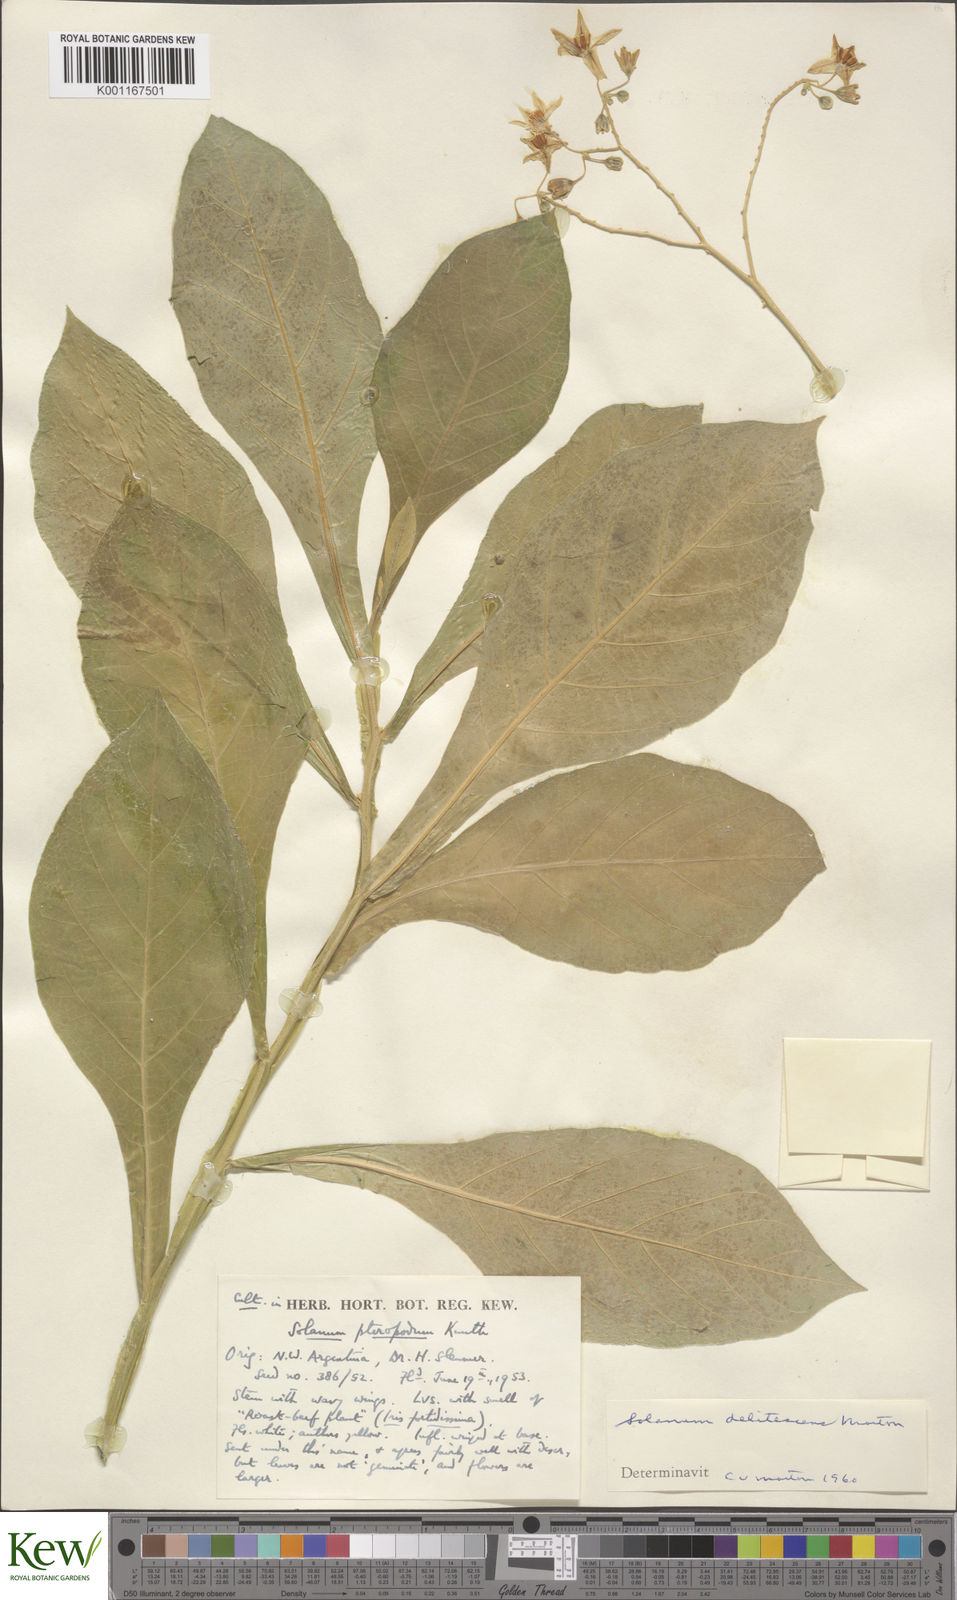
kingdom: Plantae
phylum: Tracheophyta
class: Magnoliopsida
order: Solanales
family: Solanaceae
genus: Solanum
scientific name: Solanum delitescens
